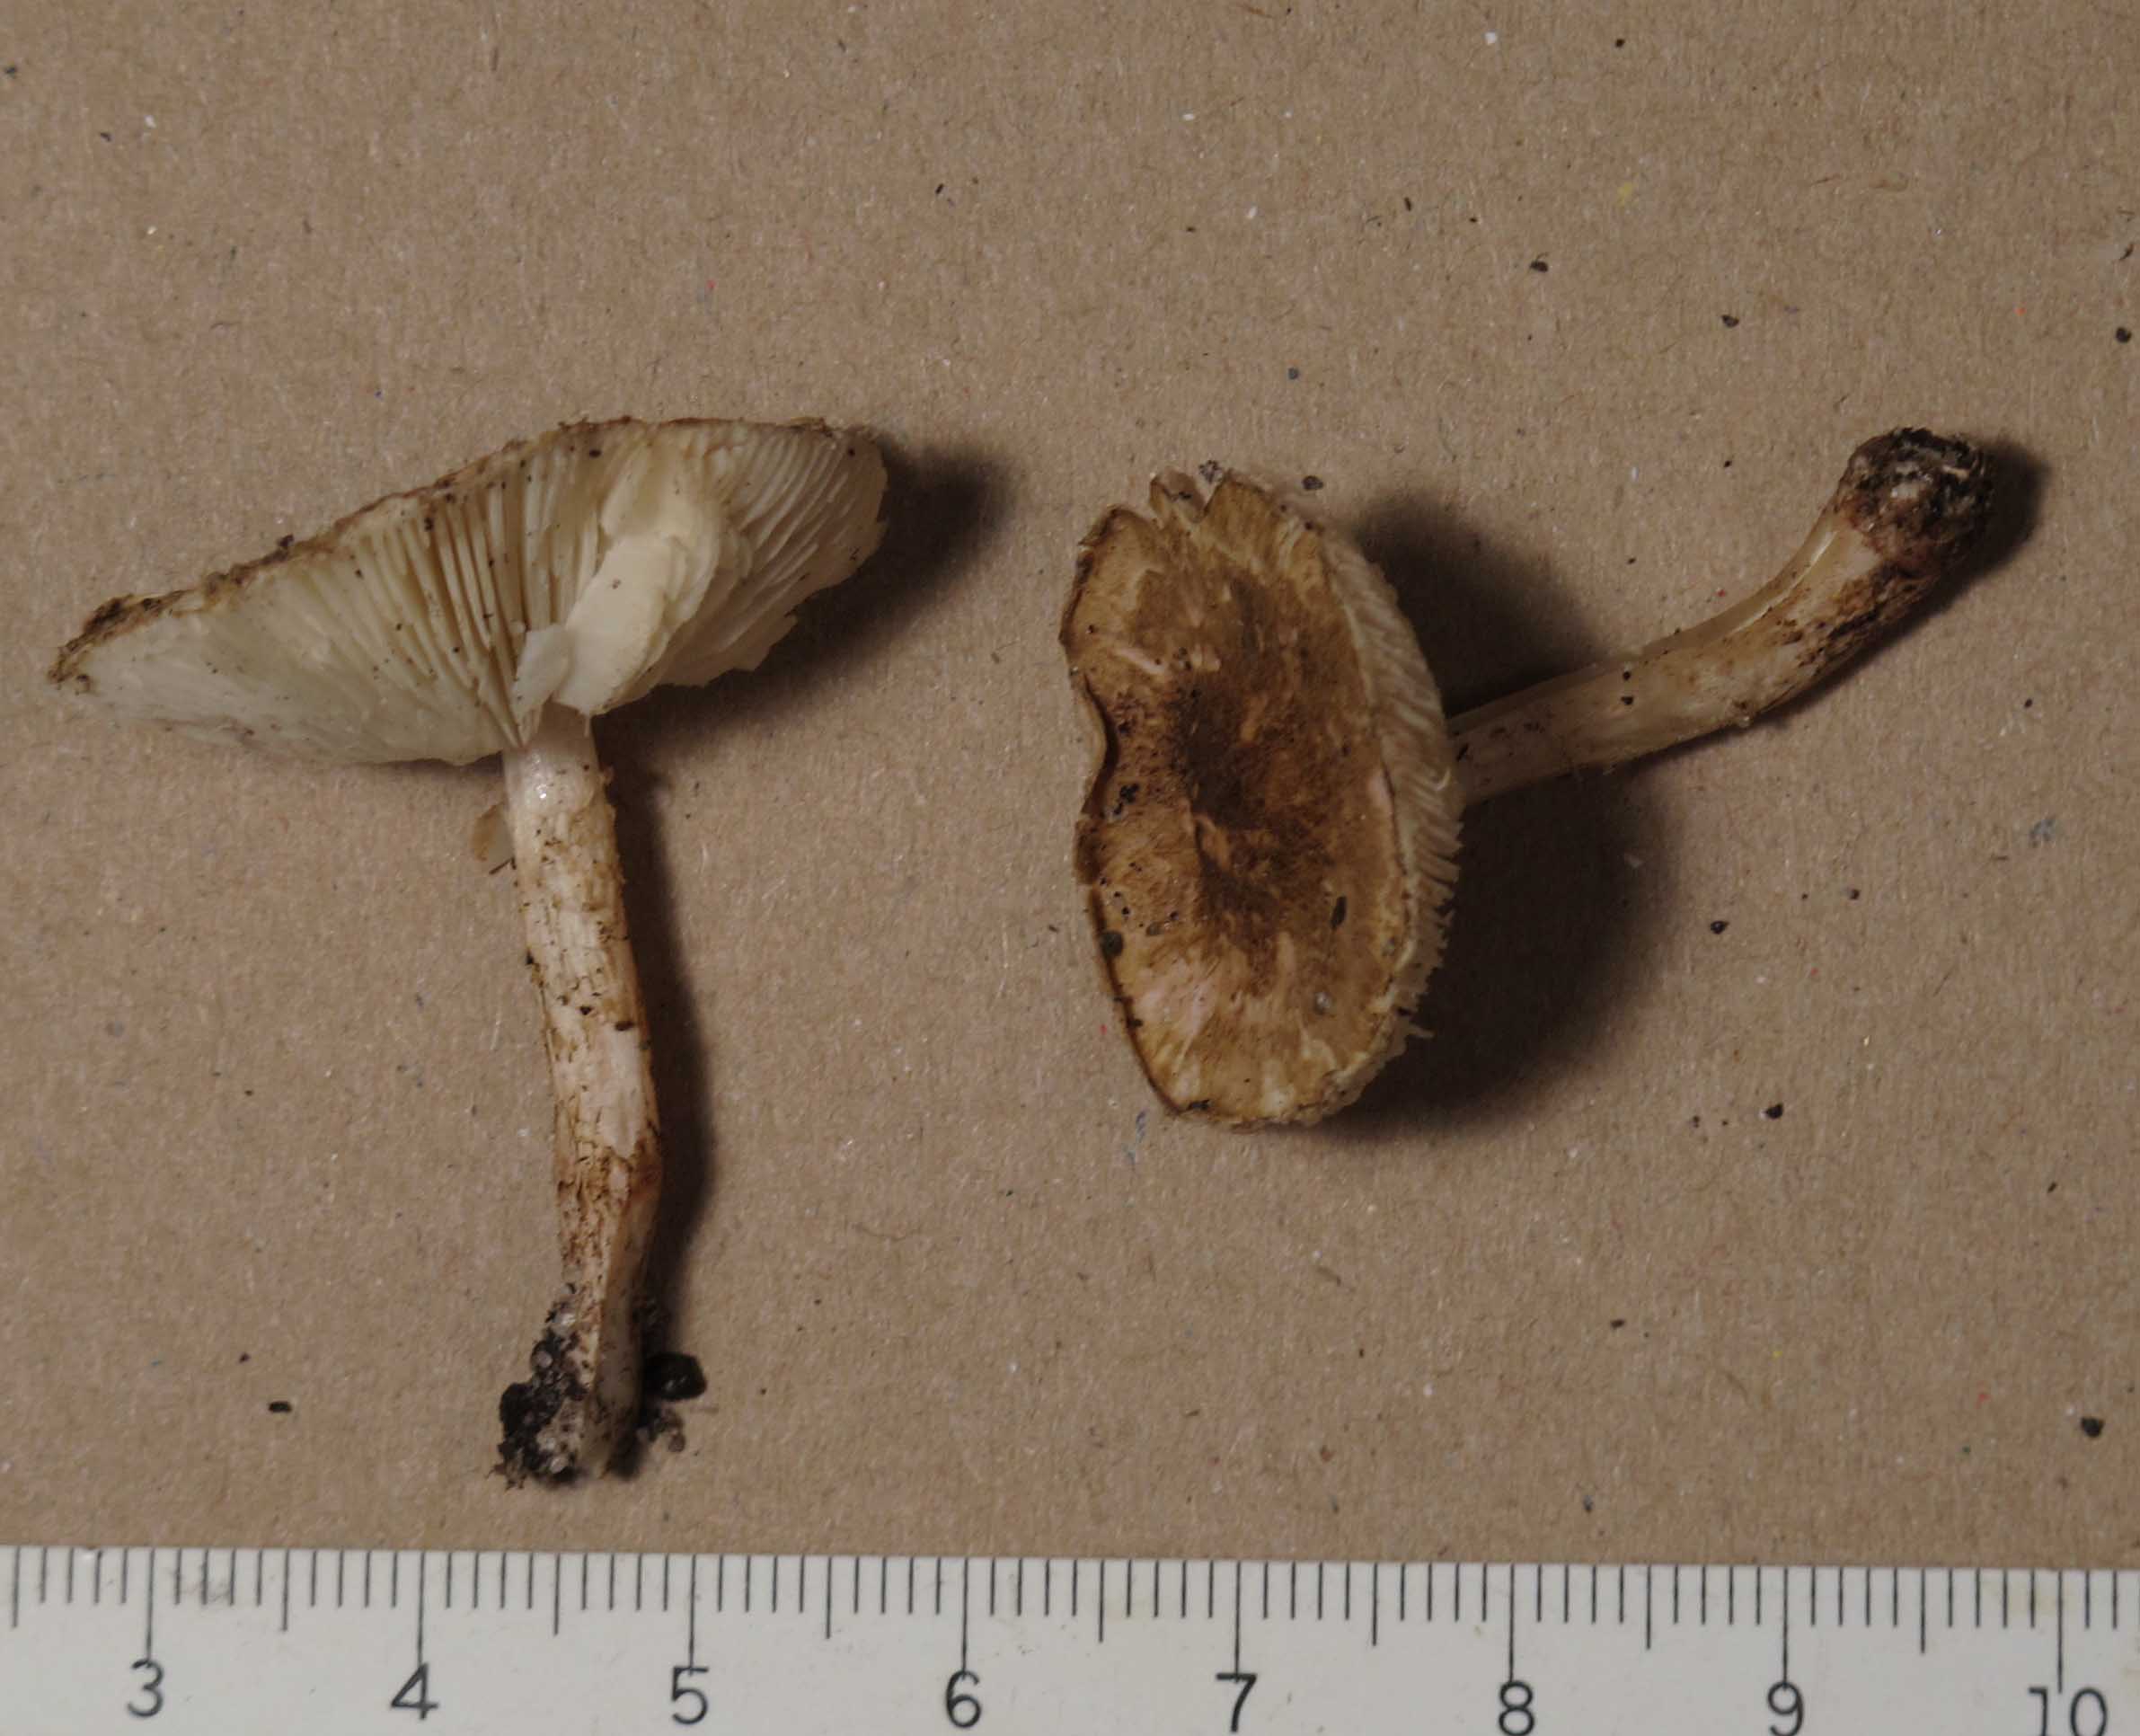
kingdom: Fungi
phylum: Basidiomycota
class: Agaricomycetes
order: Agaricales
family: Agaricaceae
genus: Lepiota
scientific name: Lepiota tomentella
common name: filtet parasolhat
